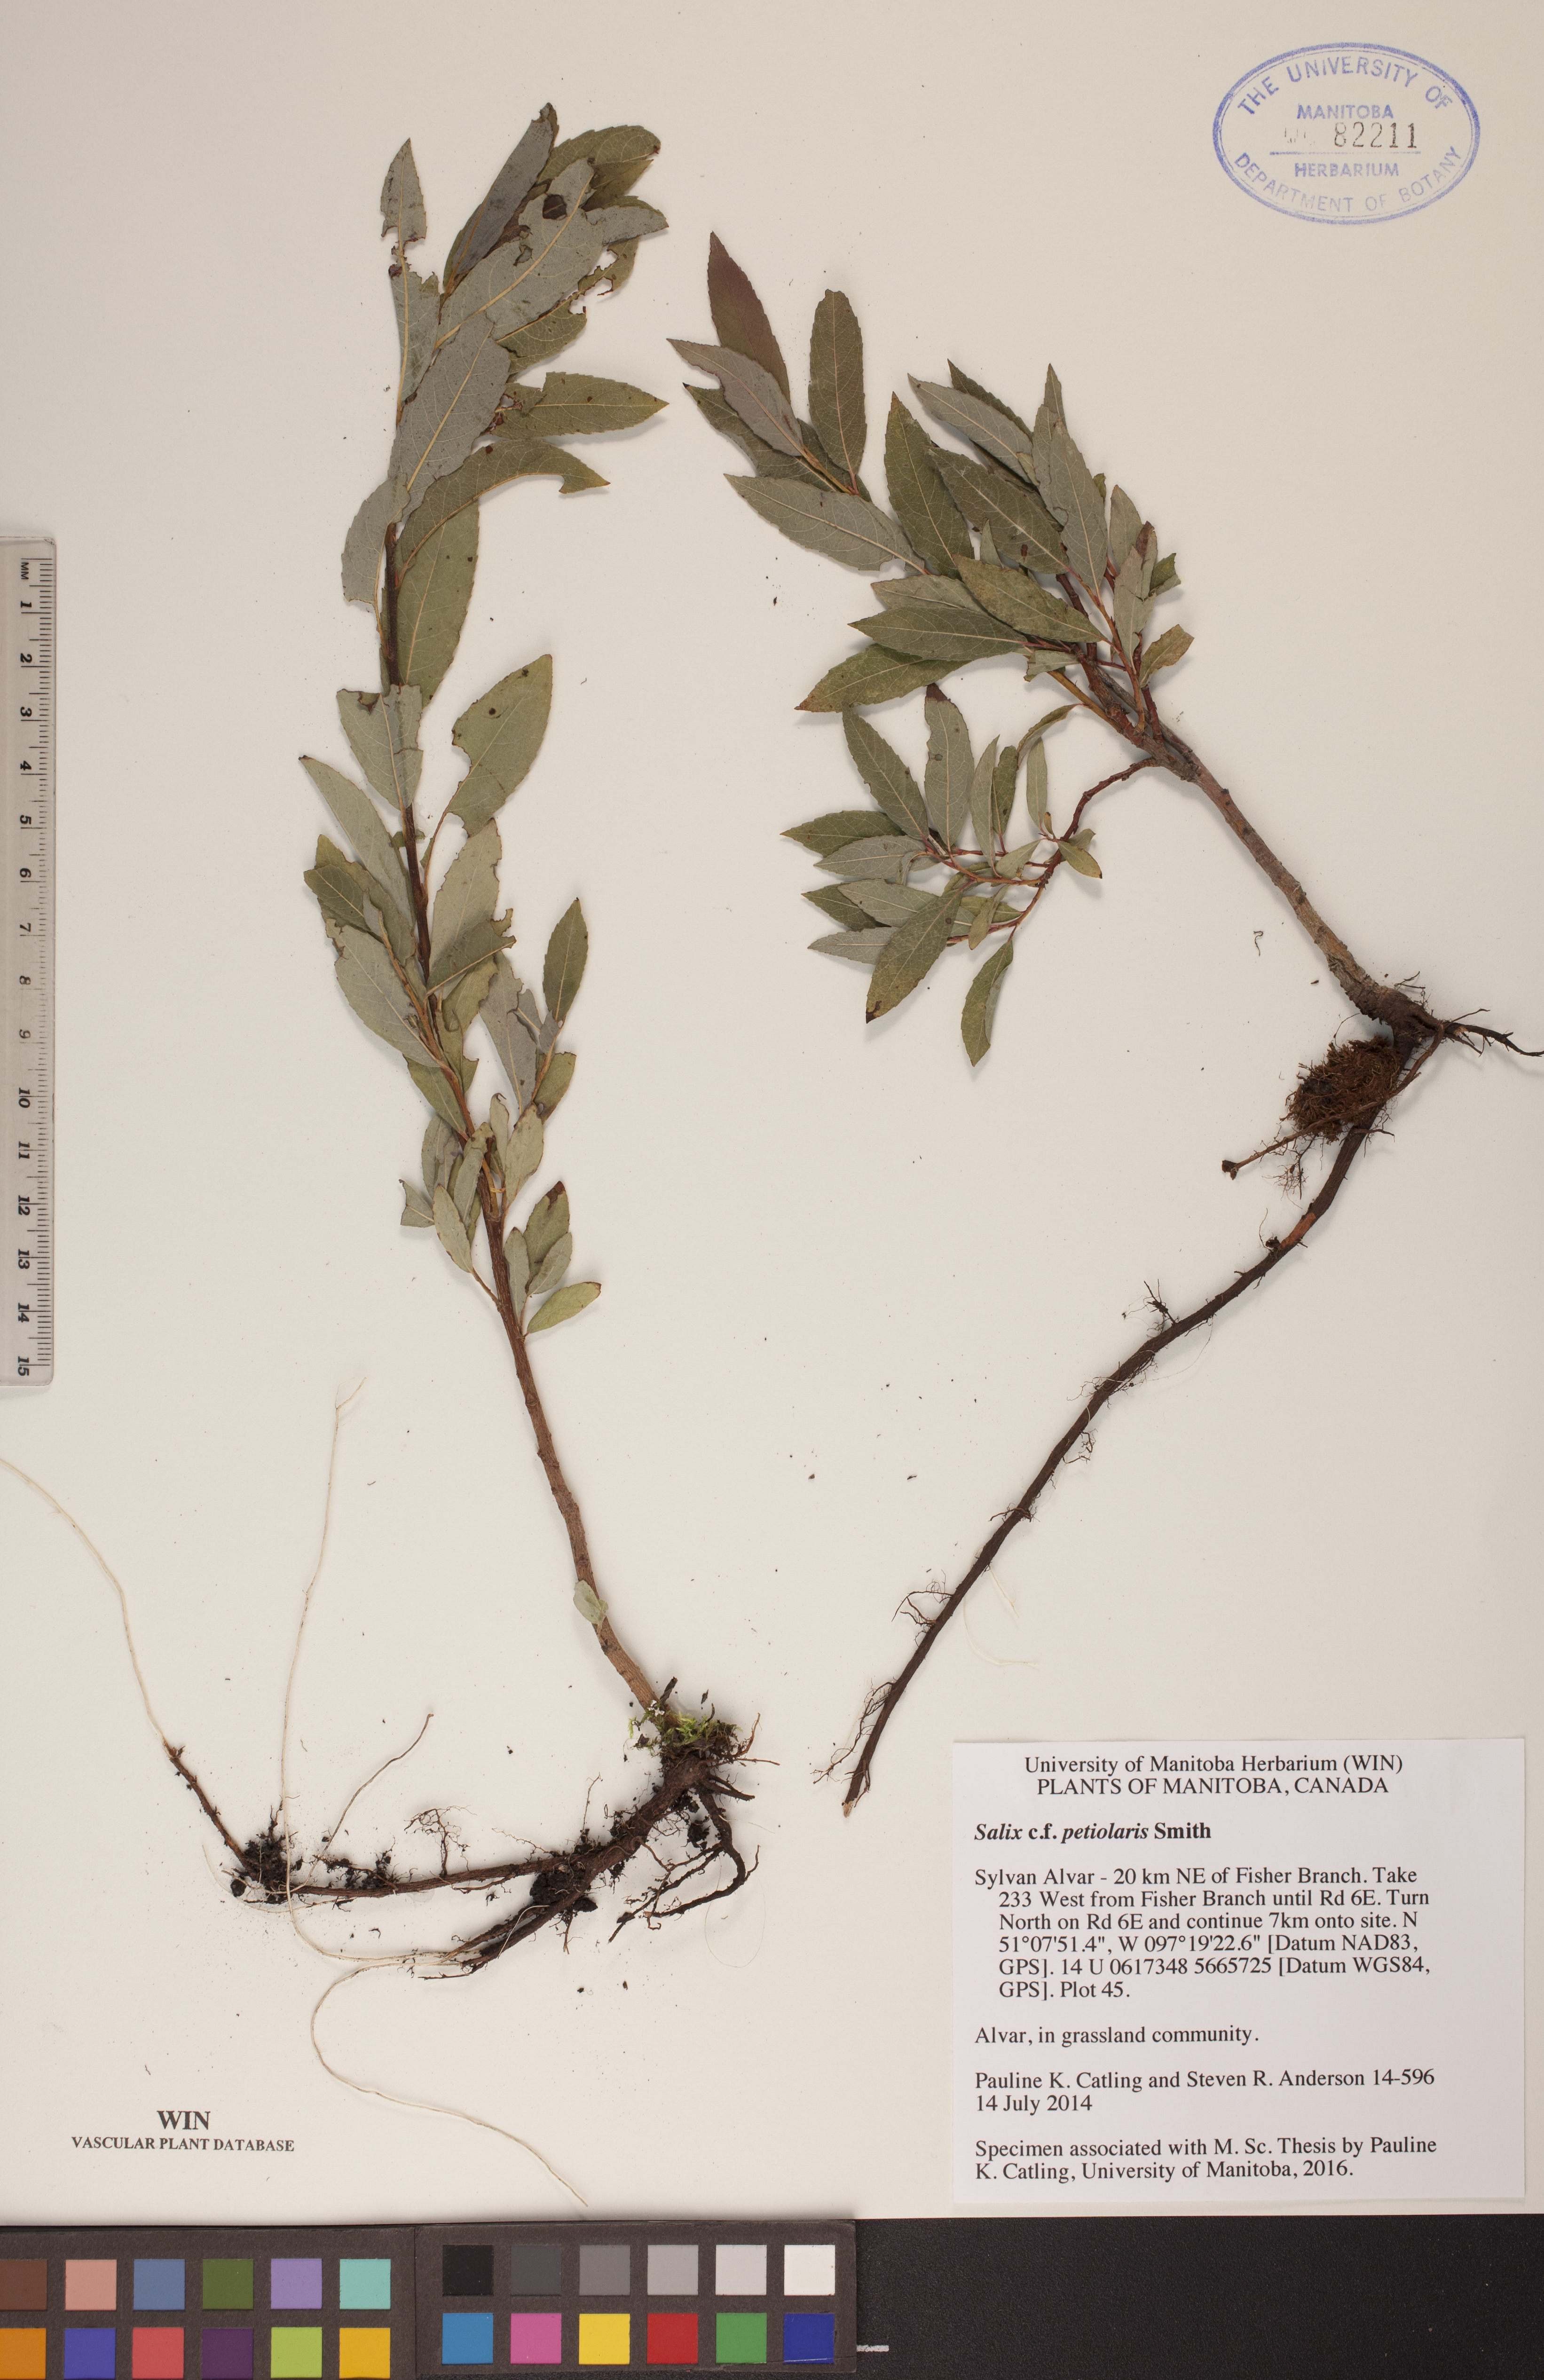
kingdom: Plantae
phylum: Tracheophyta
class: Magnoliopsida
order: Malpighiales
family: Salicaceae
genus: Salix
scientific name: Salix petiolaris
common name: Slender willow
